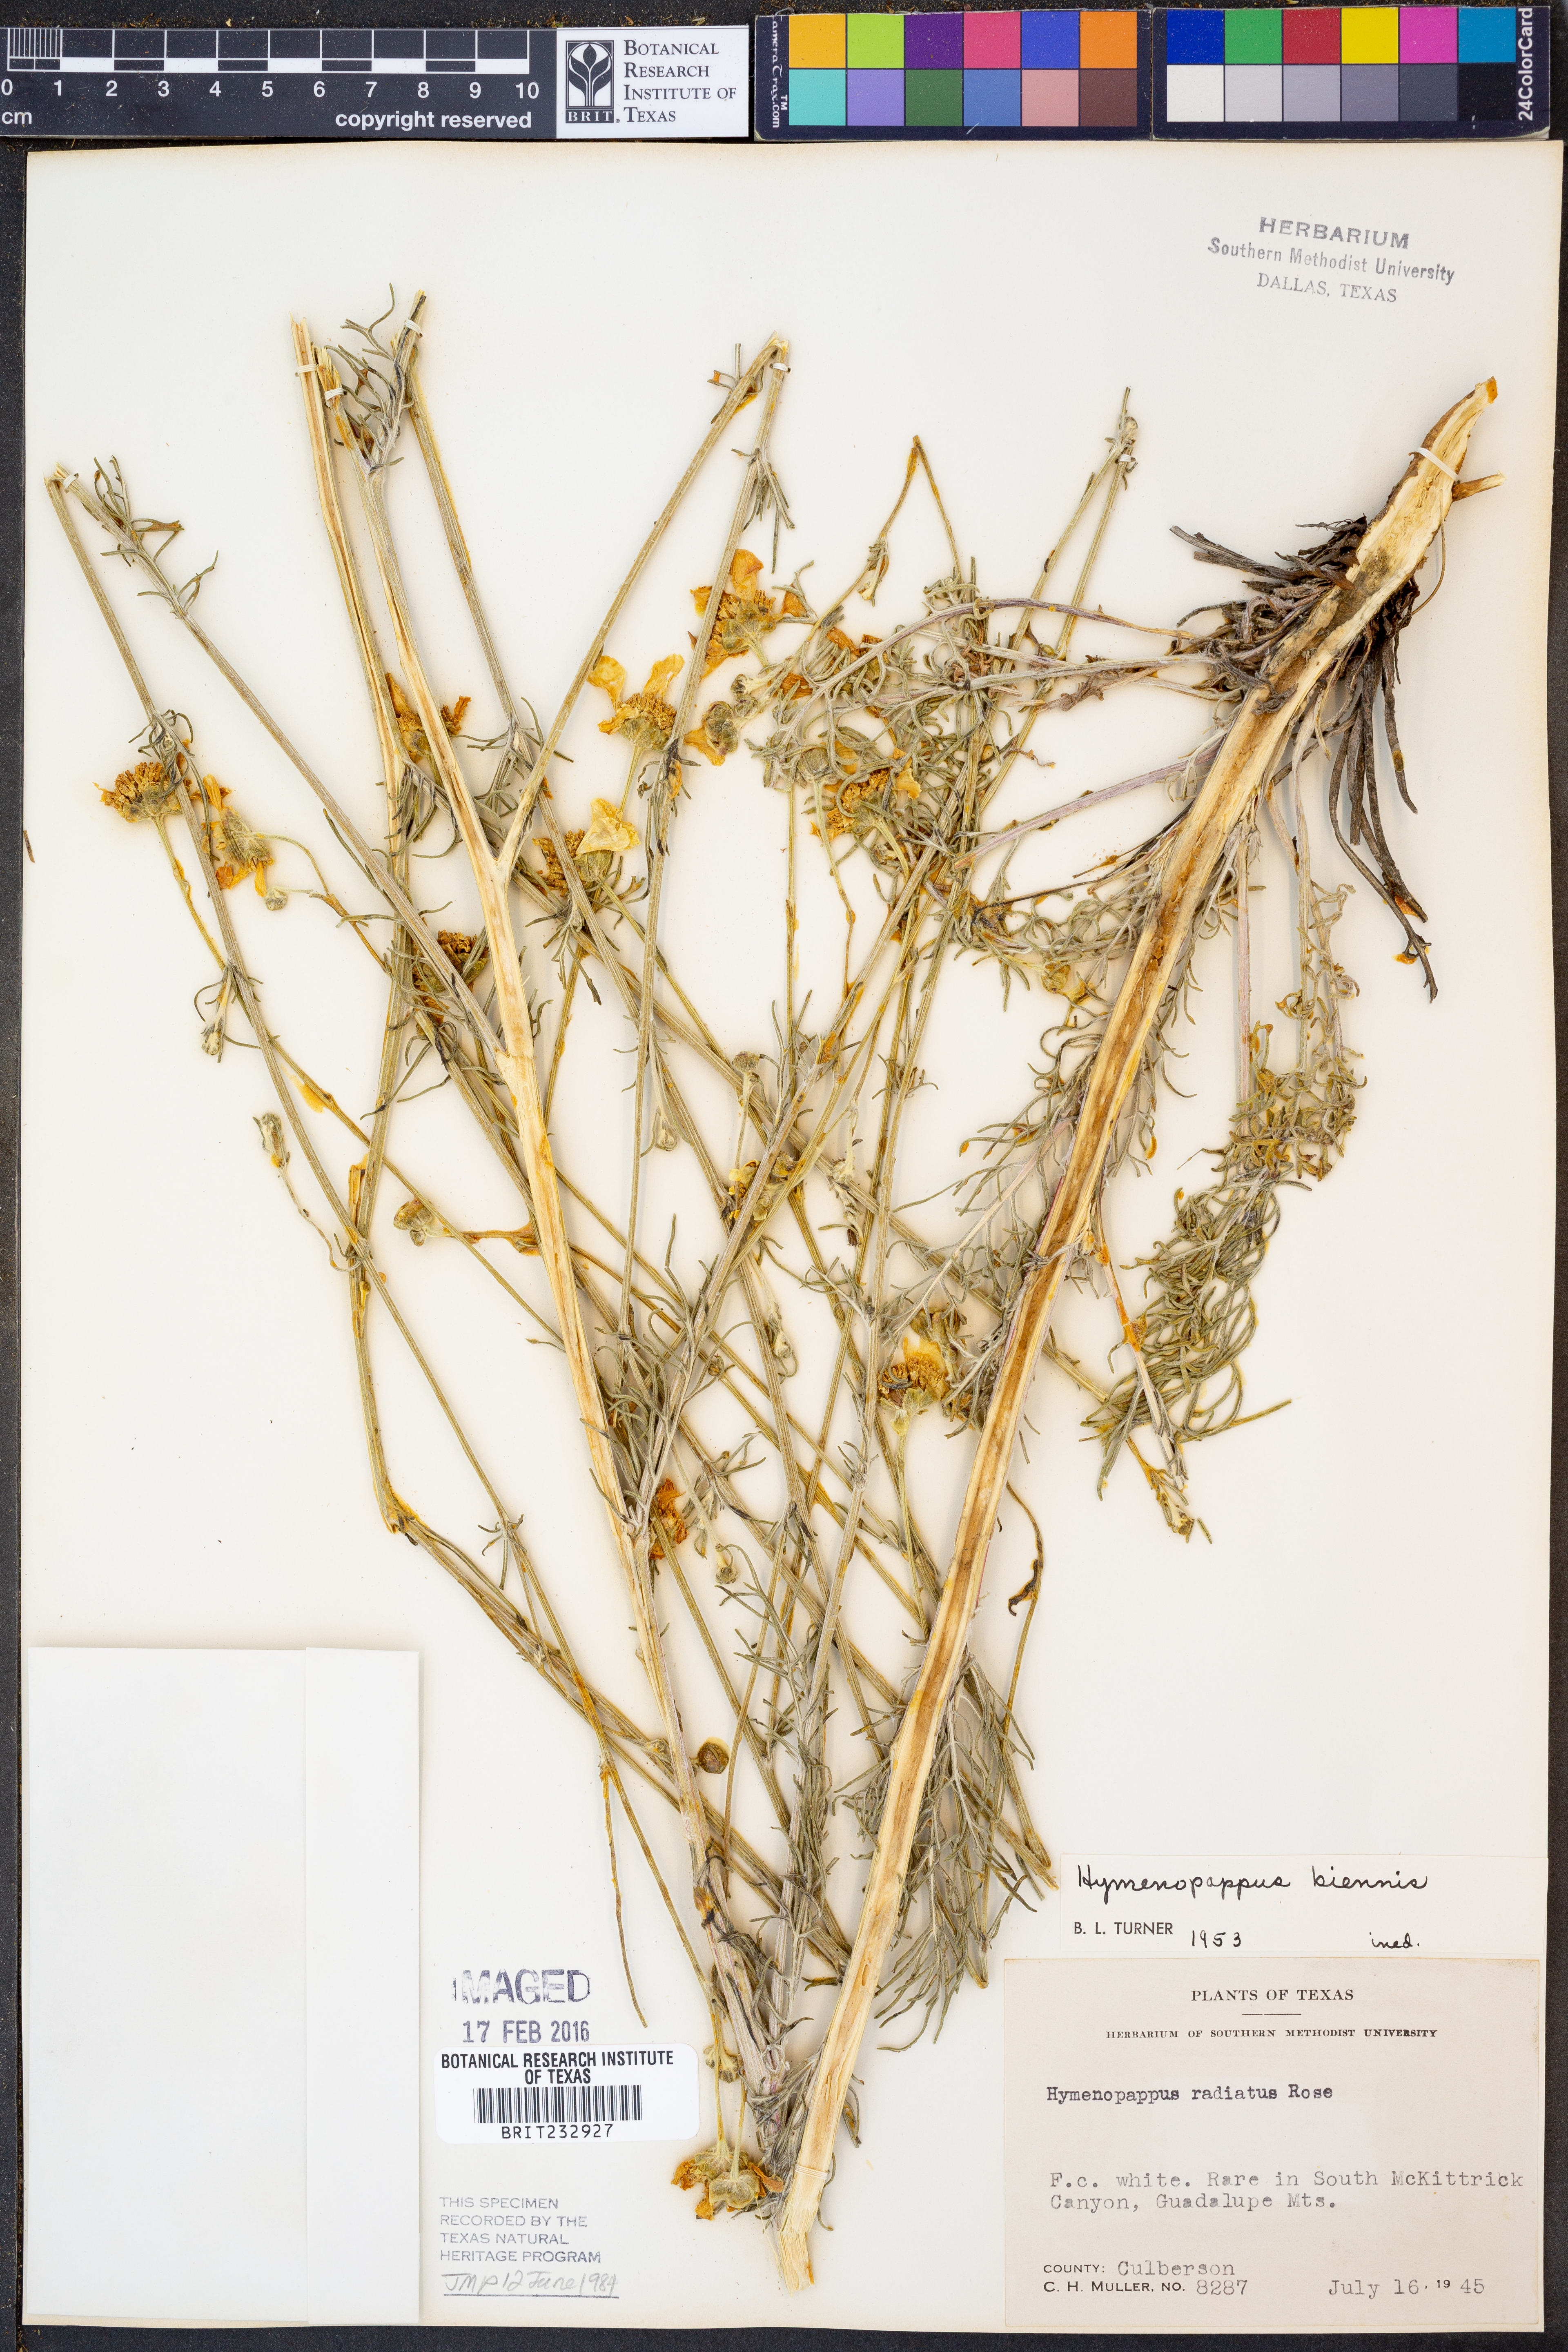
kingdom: Plantae
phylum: Tracheophyta
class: Magnoliopsida
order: Asterales
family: Asteraceae
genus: Hymenopappus
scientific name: Hymenopappus biennis
